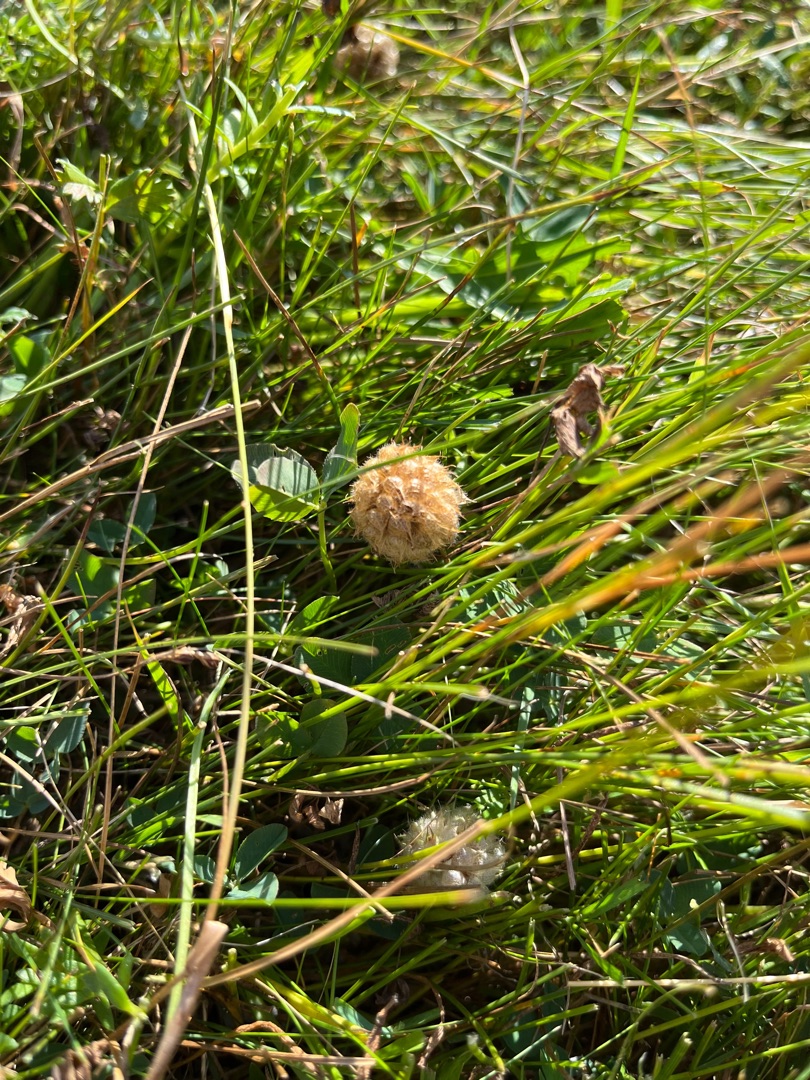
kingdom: Plantae
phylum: Tracheophyta
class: Magnoliopsida
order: Fabales
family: Fabaceae
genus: Trifolium
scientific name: Trifolium fragiferum
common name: Jordbær-kløver
